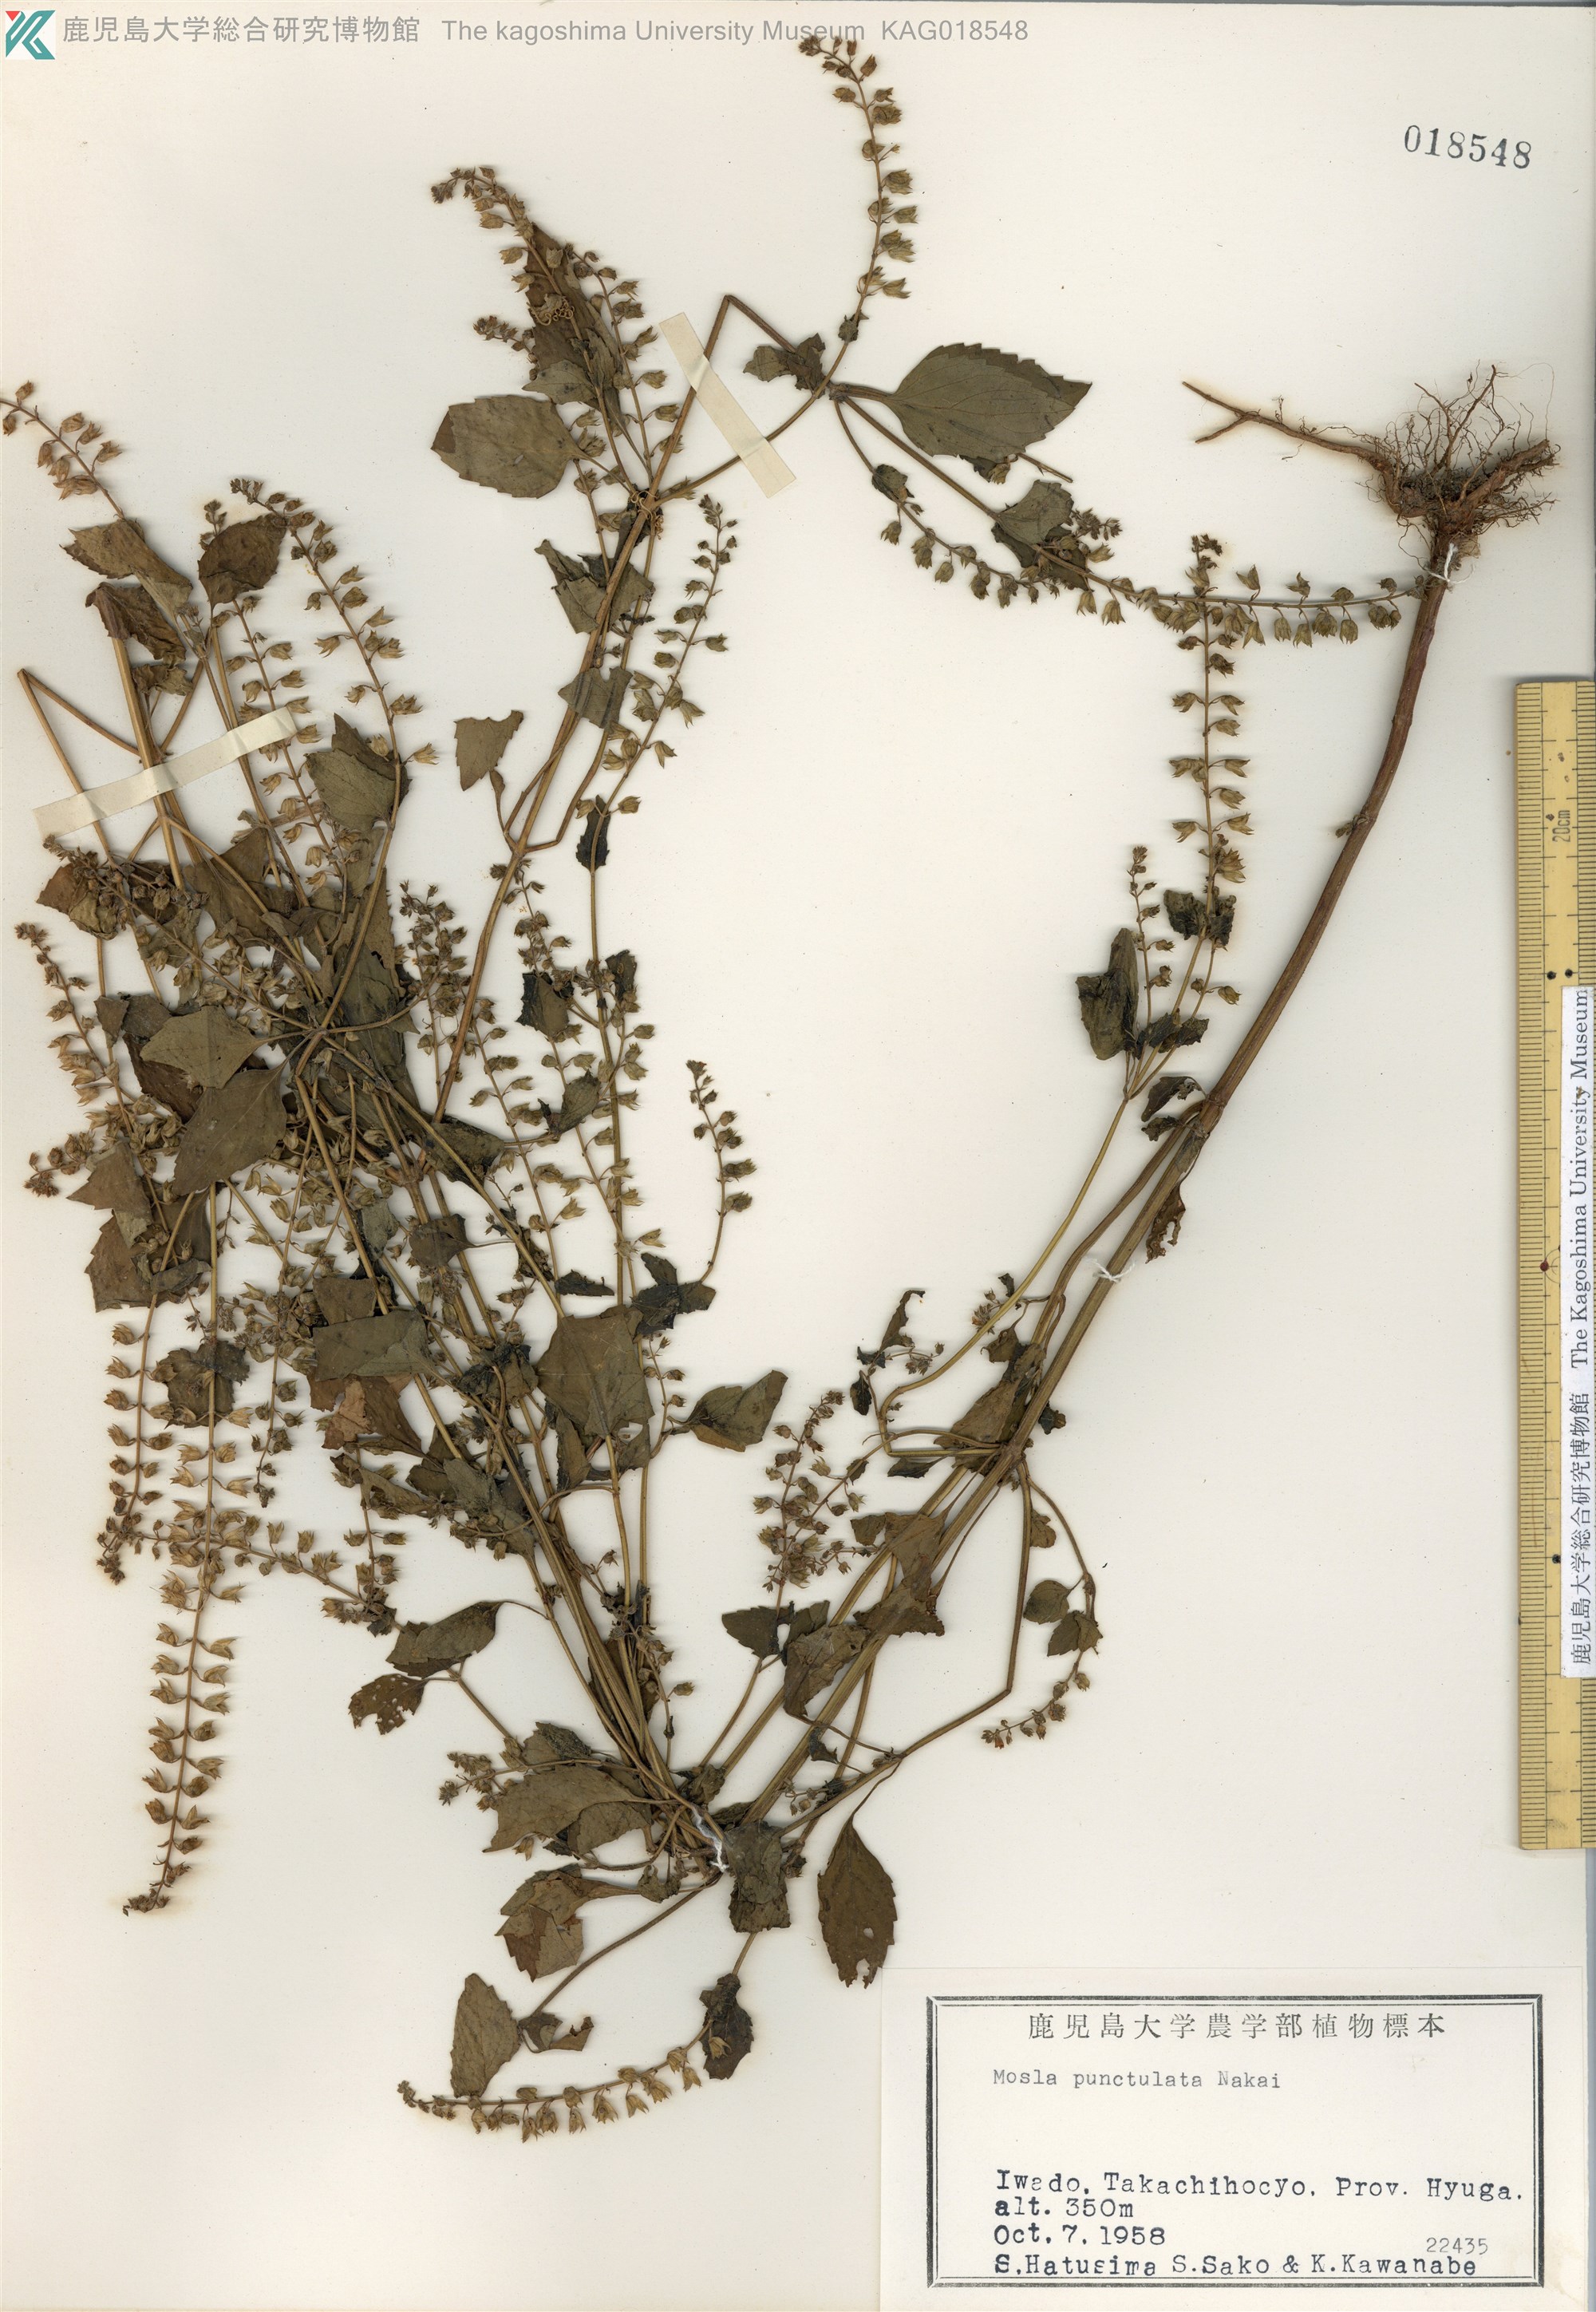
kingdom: Plantae
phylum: Tracheophyta
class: Magnoliopsida
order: Lamiales
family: Lamiaceae
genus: Mosla
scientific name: Mosla scabra
